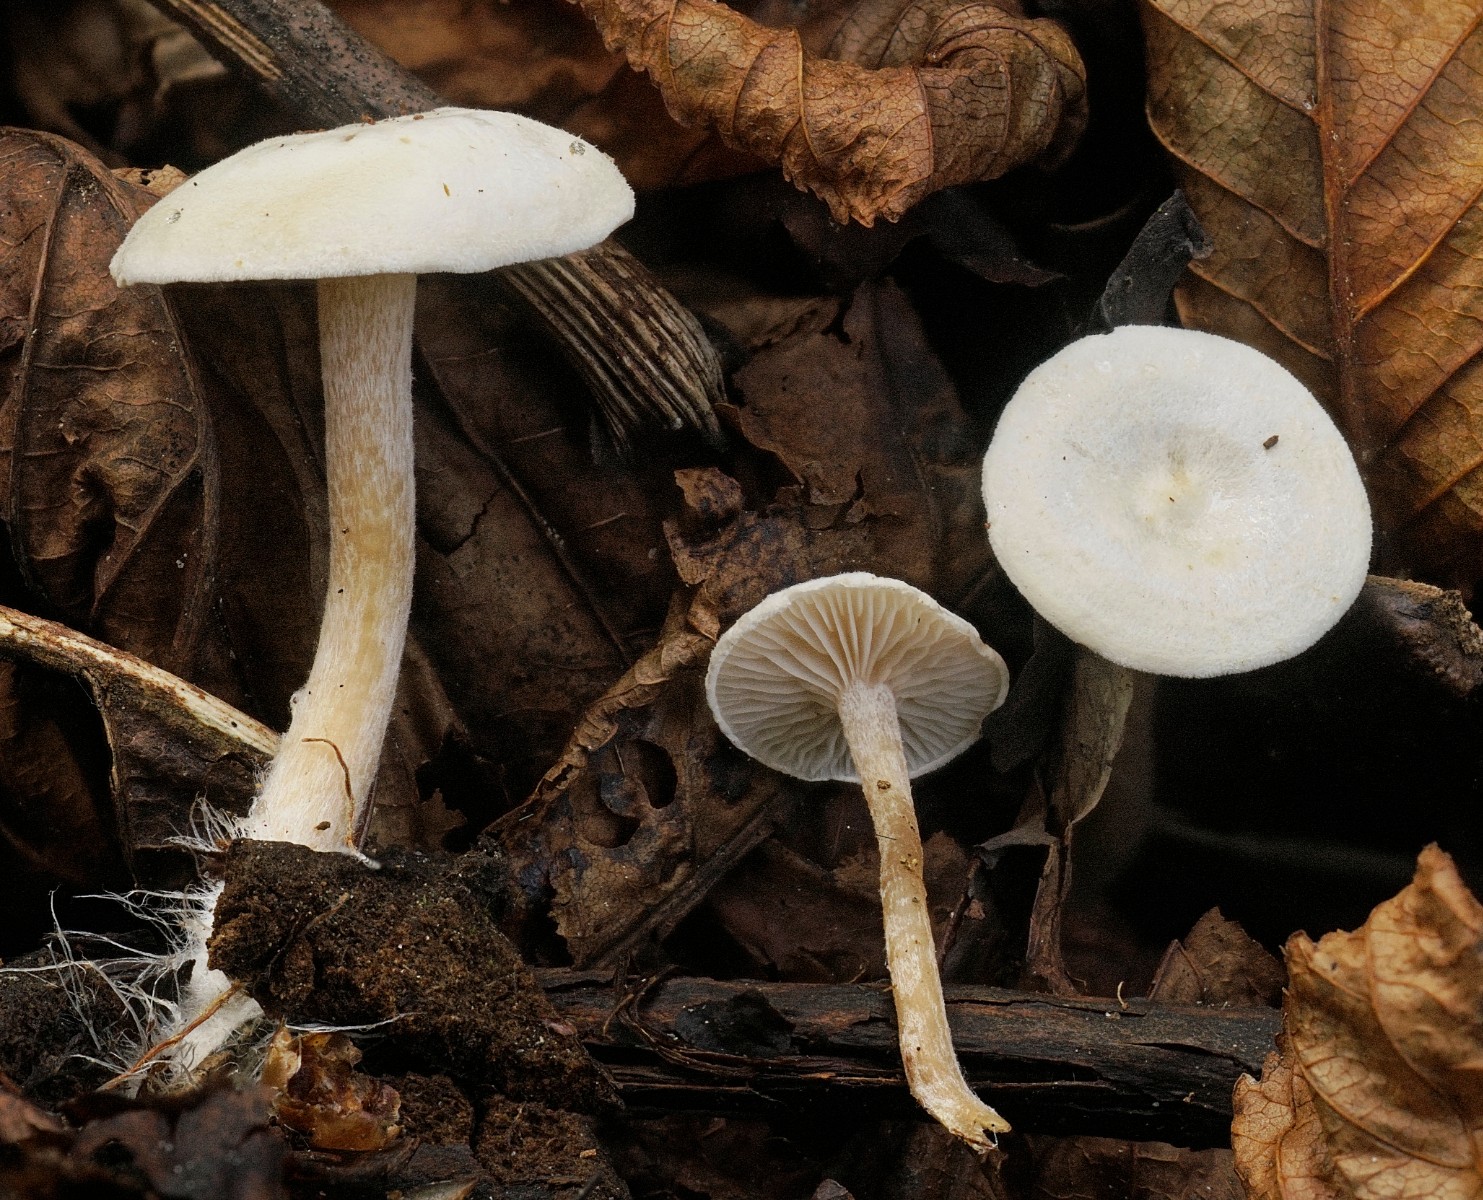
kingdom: Fungi
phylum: Basidiomycota
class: Agaricomycetes
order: Agaricales
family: Tricholomataceae
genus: Ripartites
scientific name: Ripartites
